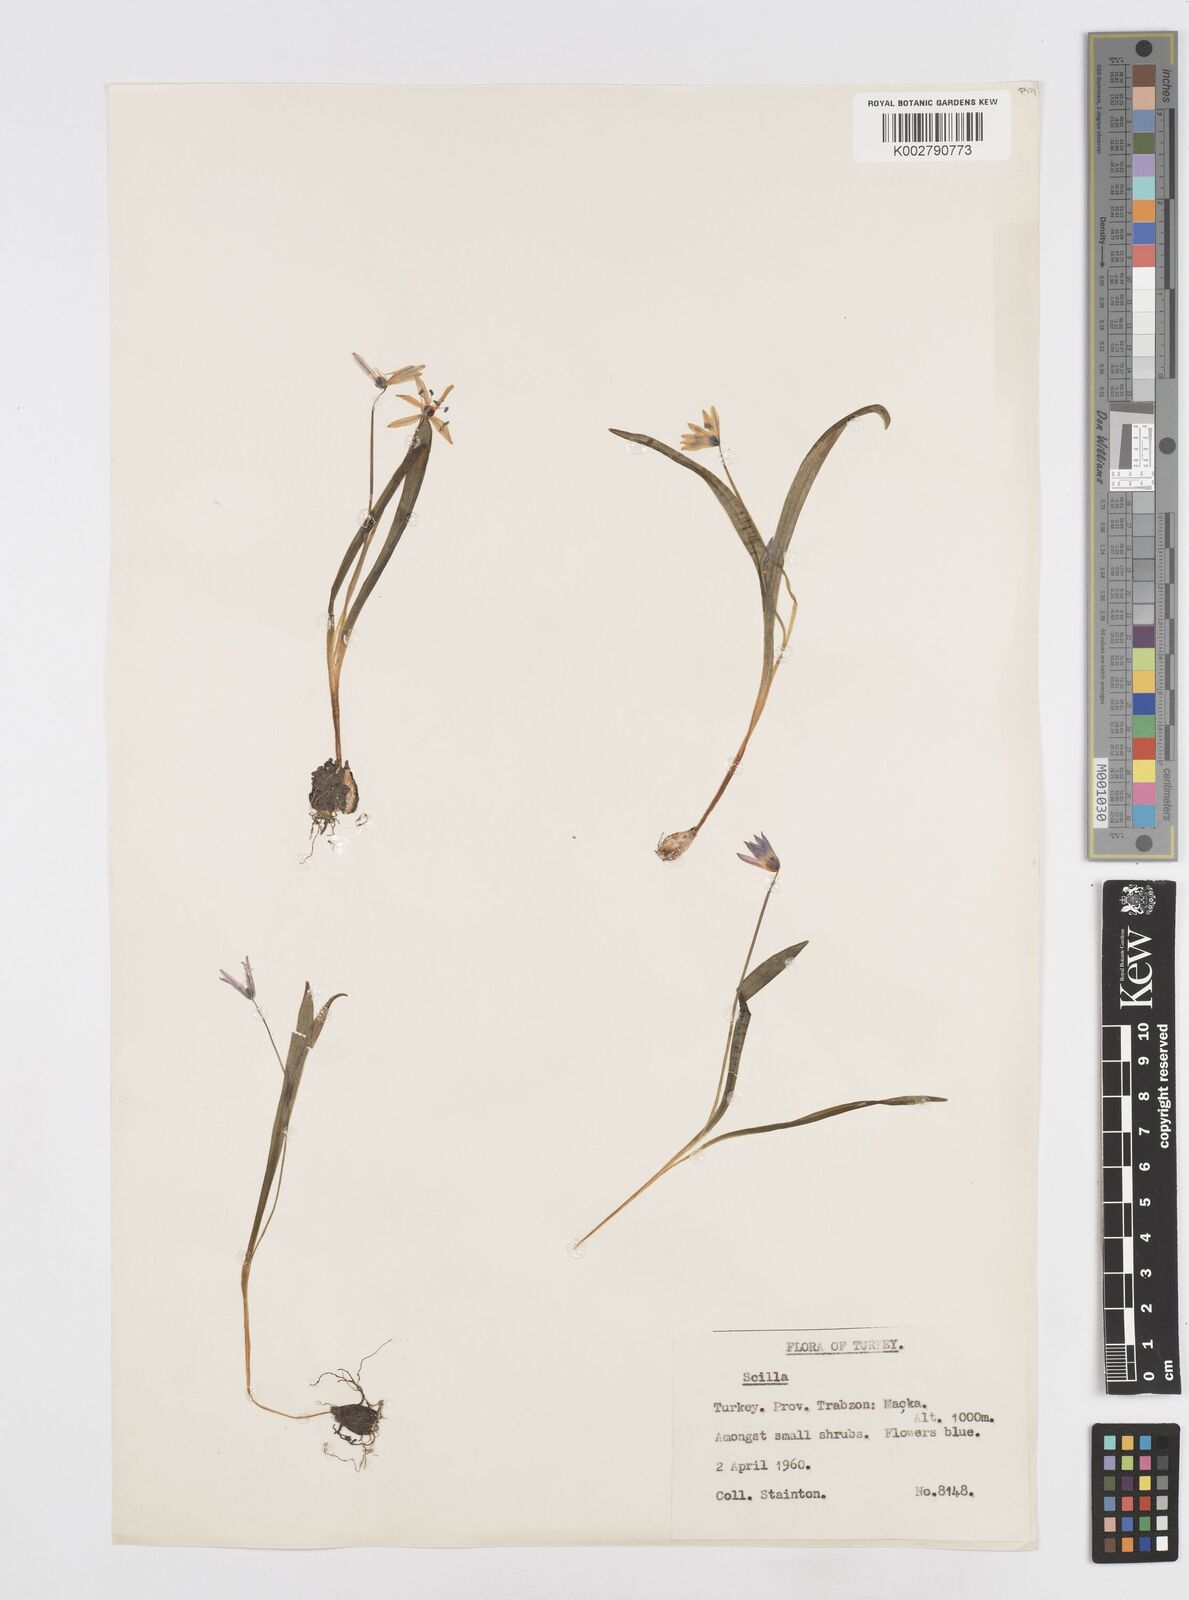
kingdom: Plantae
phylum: Tracheophyta
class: Liliopsida
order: Asparagales
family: Asparagaceae
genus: Scilla
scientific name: Scilla siberica
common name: Siberian squill
